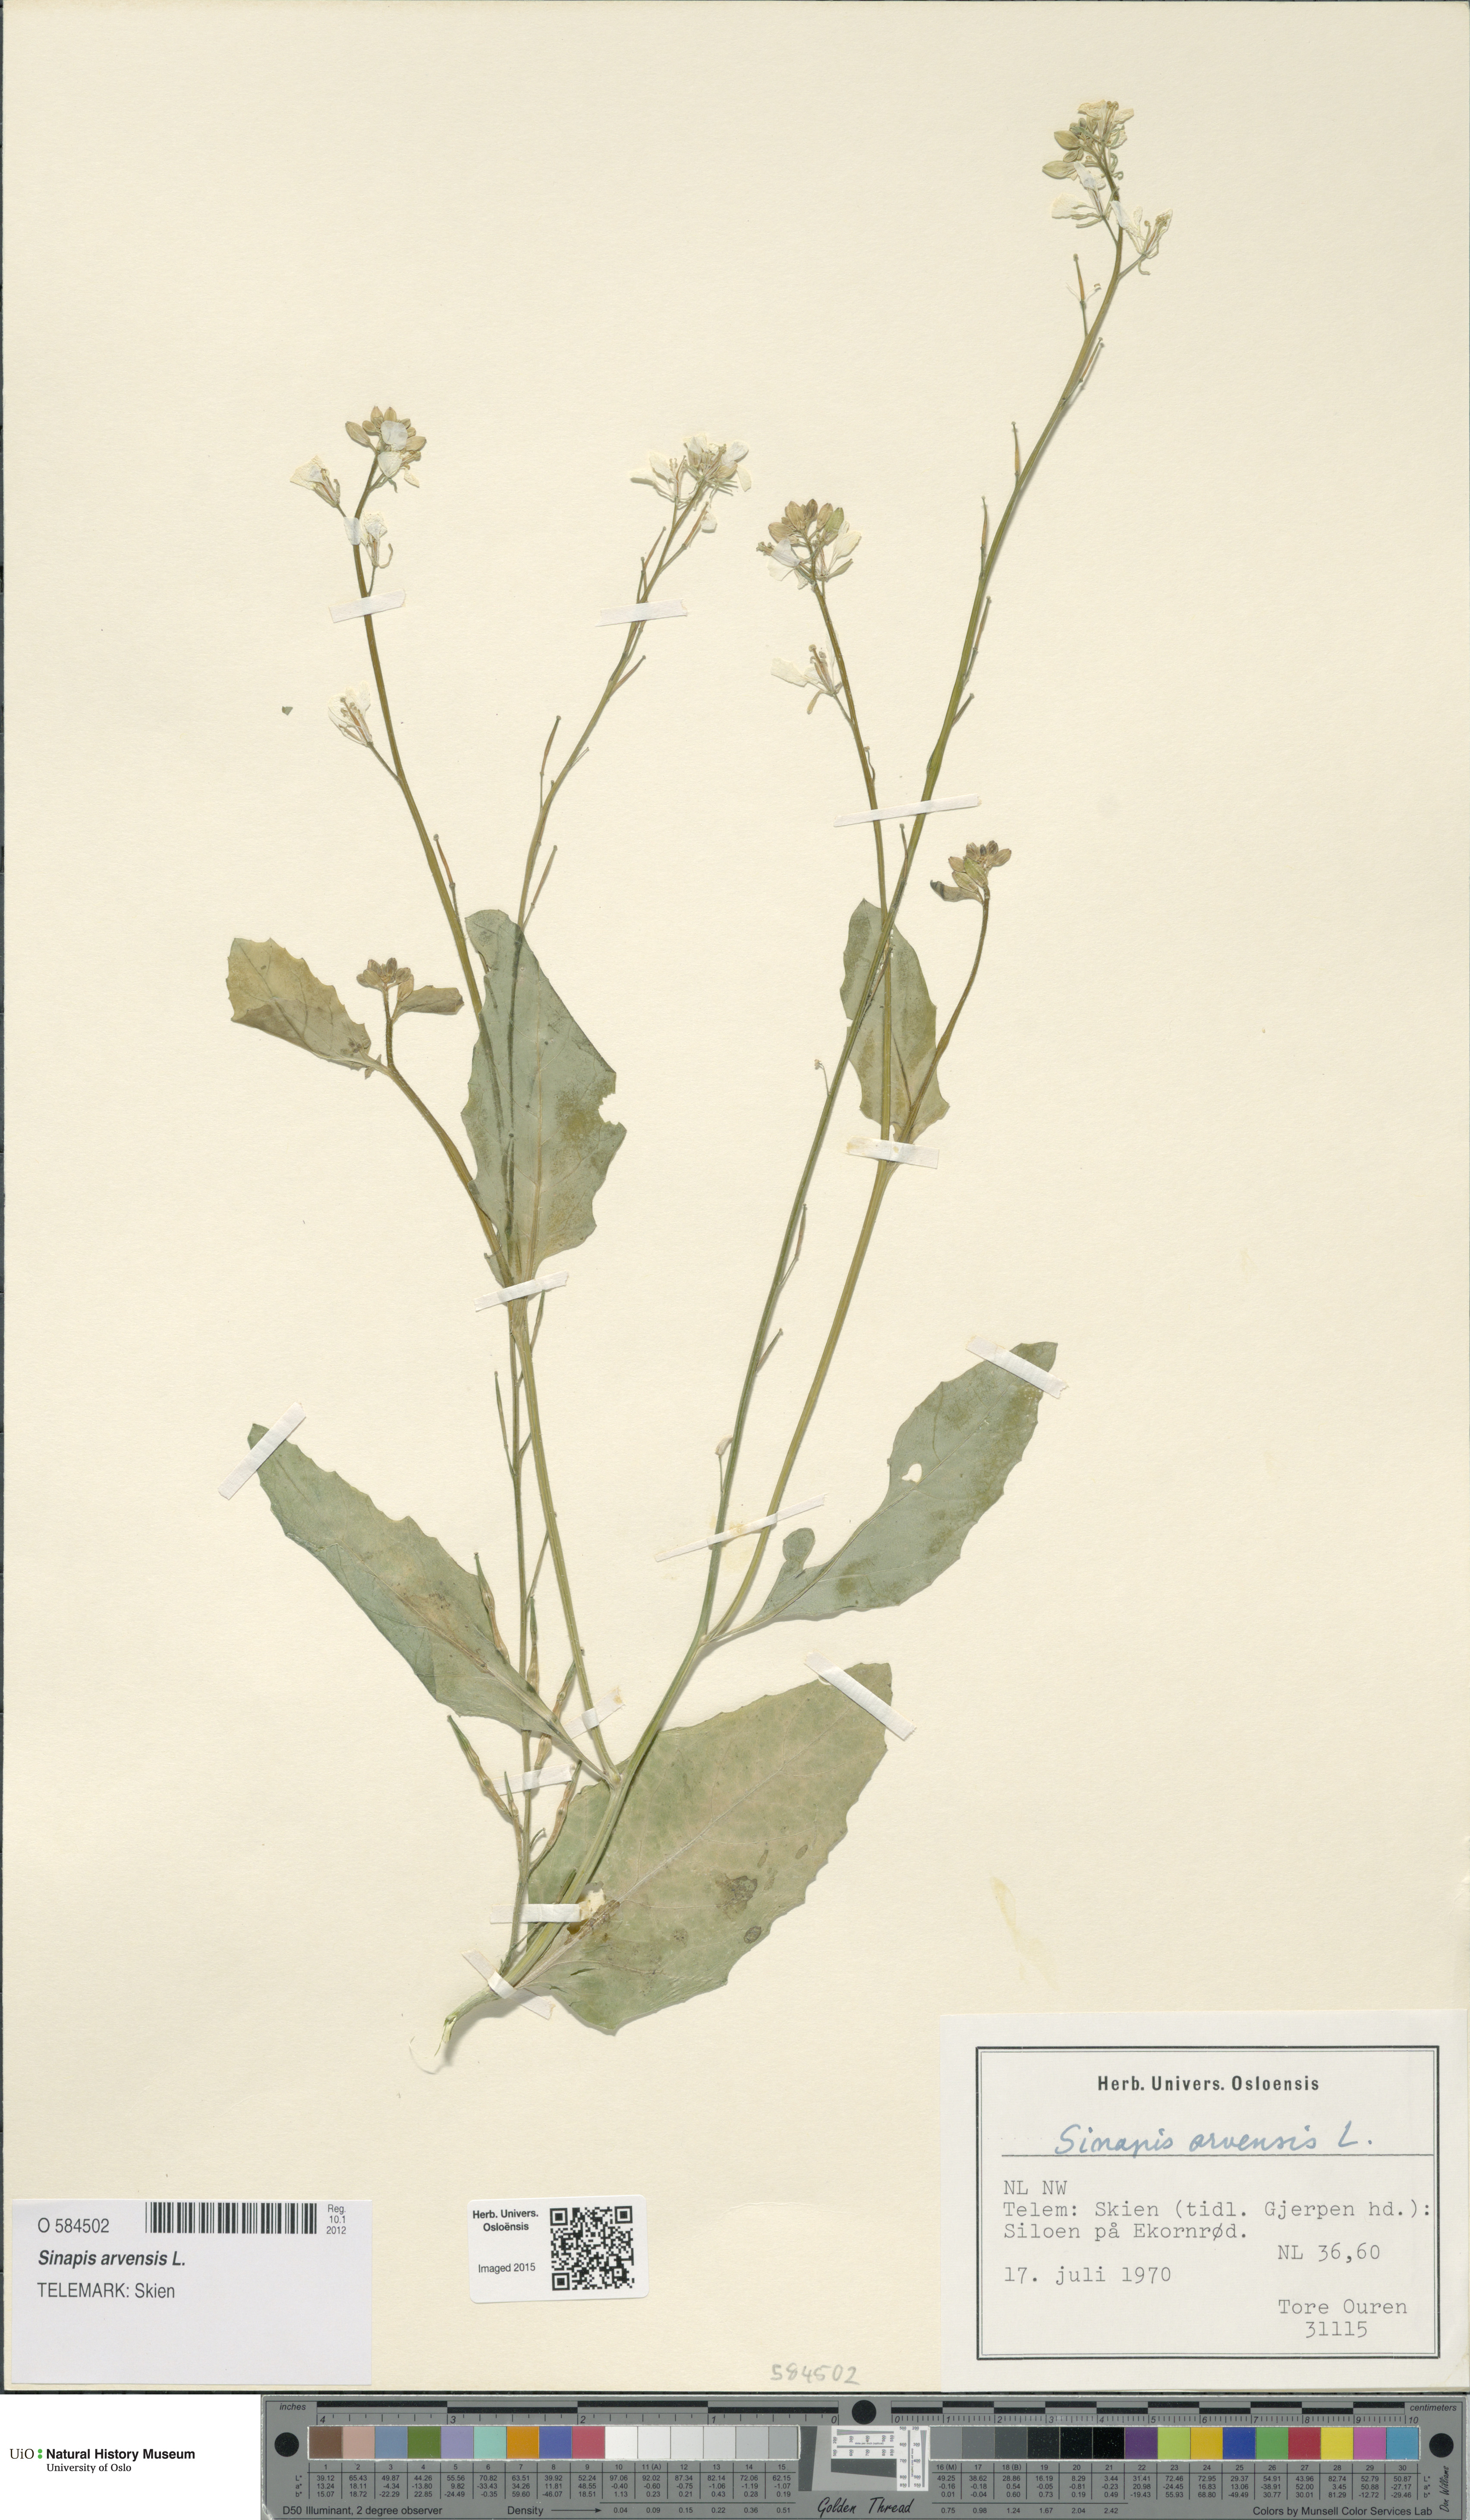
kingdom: Plantae
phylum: Tracheophyta
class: Magnoliopsida
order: Brassicales
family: Brassicaceae
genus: Sinapis
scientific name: Sinapis arvensis
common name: Charlock
